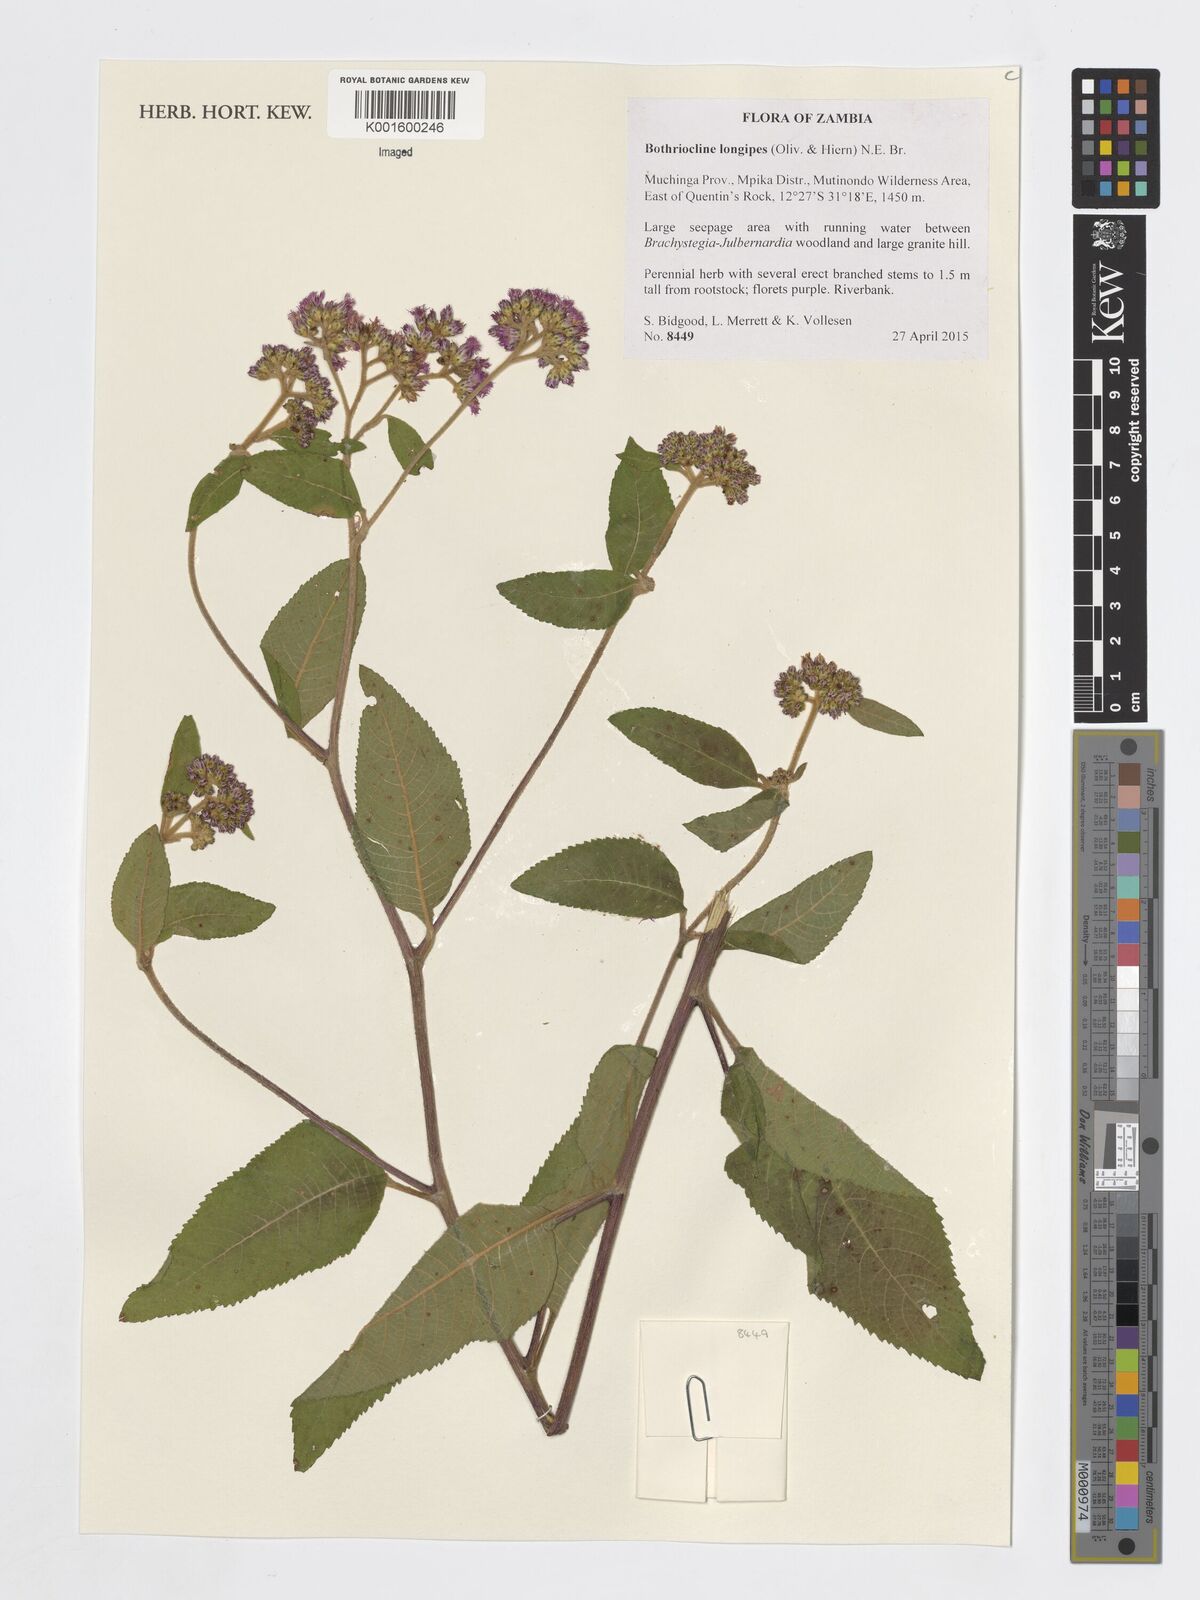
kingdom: Plantae
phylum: Tracheophyta
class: Magnoliopsida
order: Asterales
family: Asteraceae
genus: Bothriocline
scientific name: Bothriocline longipes
